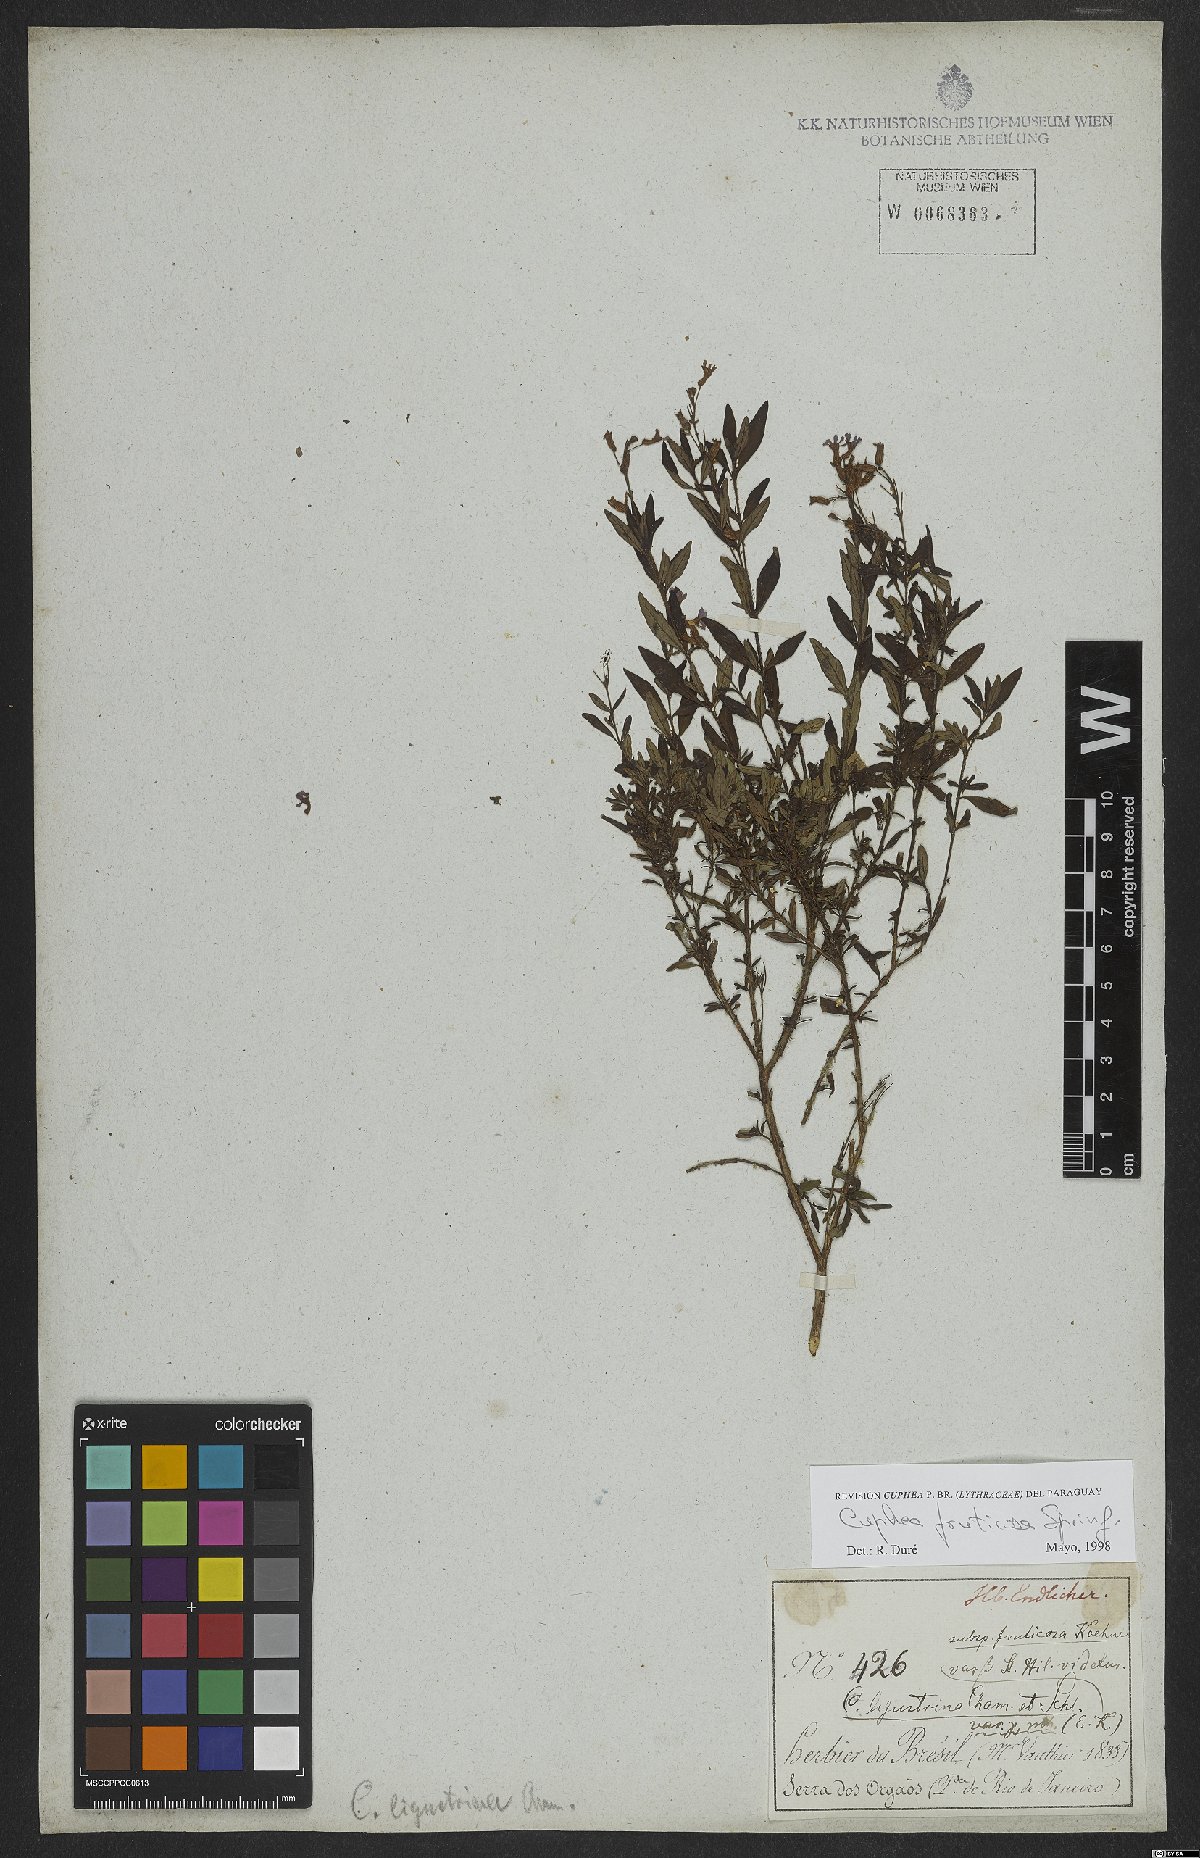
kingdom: Plantae
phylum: Tracheophyta
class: Magnoliopsida
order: Myrtales
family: Lythraceae
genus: Cuphea
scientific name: Cuphea fruticosa
